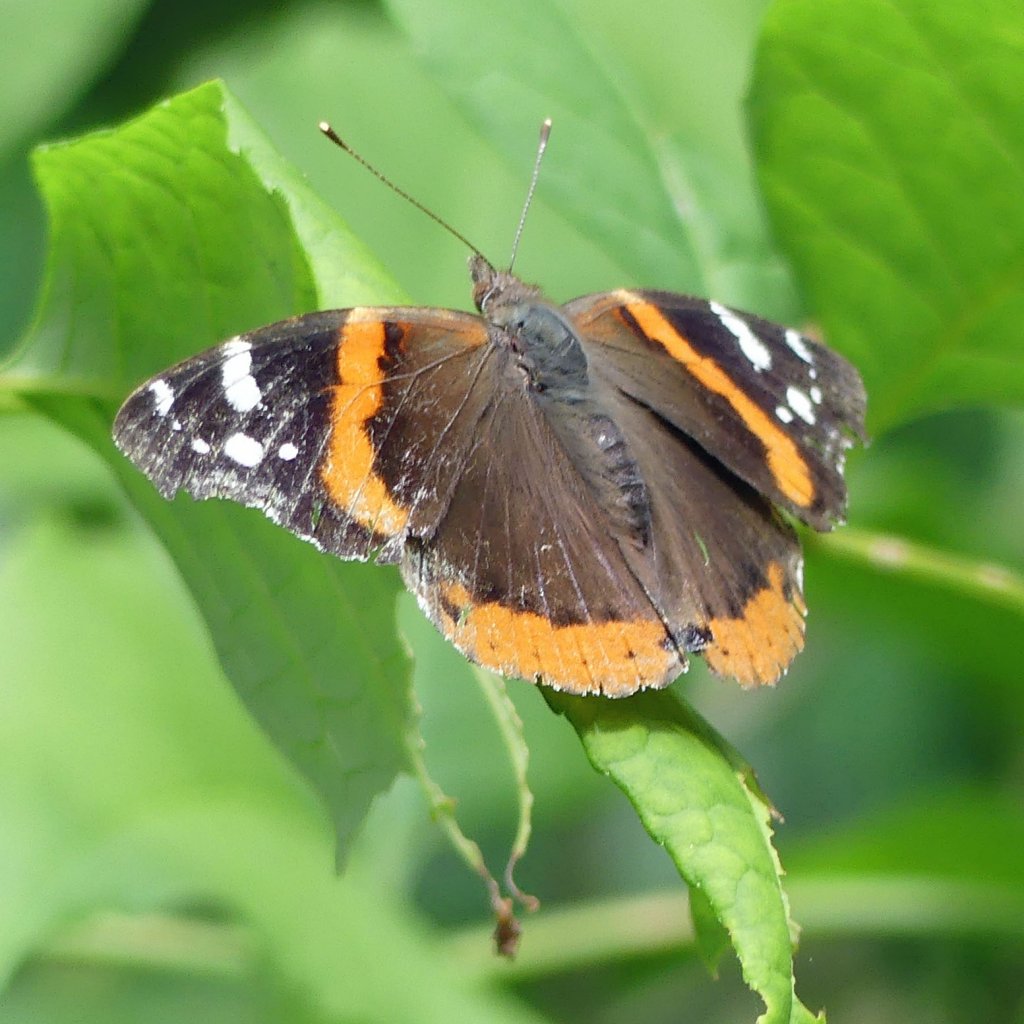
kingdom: Animalia
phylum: Arthropoda
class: Insecta
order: Lepidoptera
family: Nymphalidae
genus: Vanessa
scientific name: Vanessa atalanta
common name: Red Admiral
